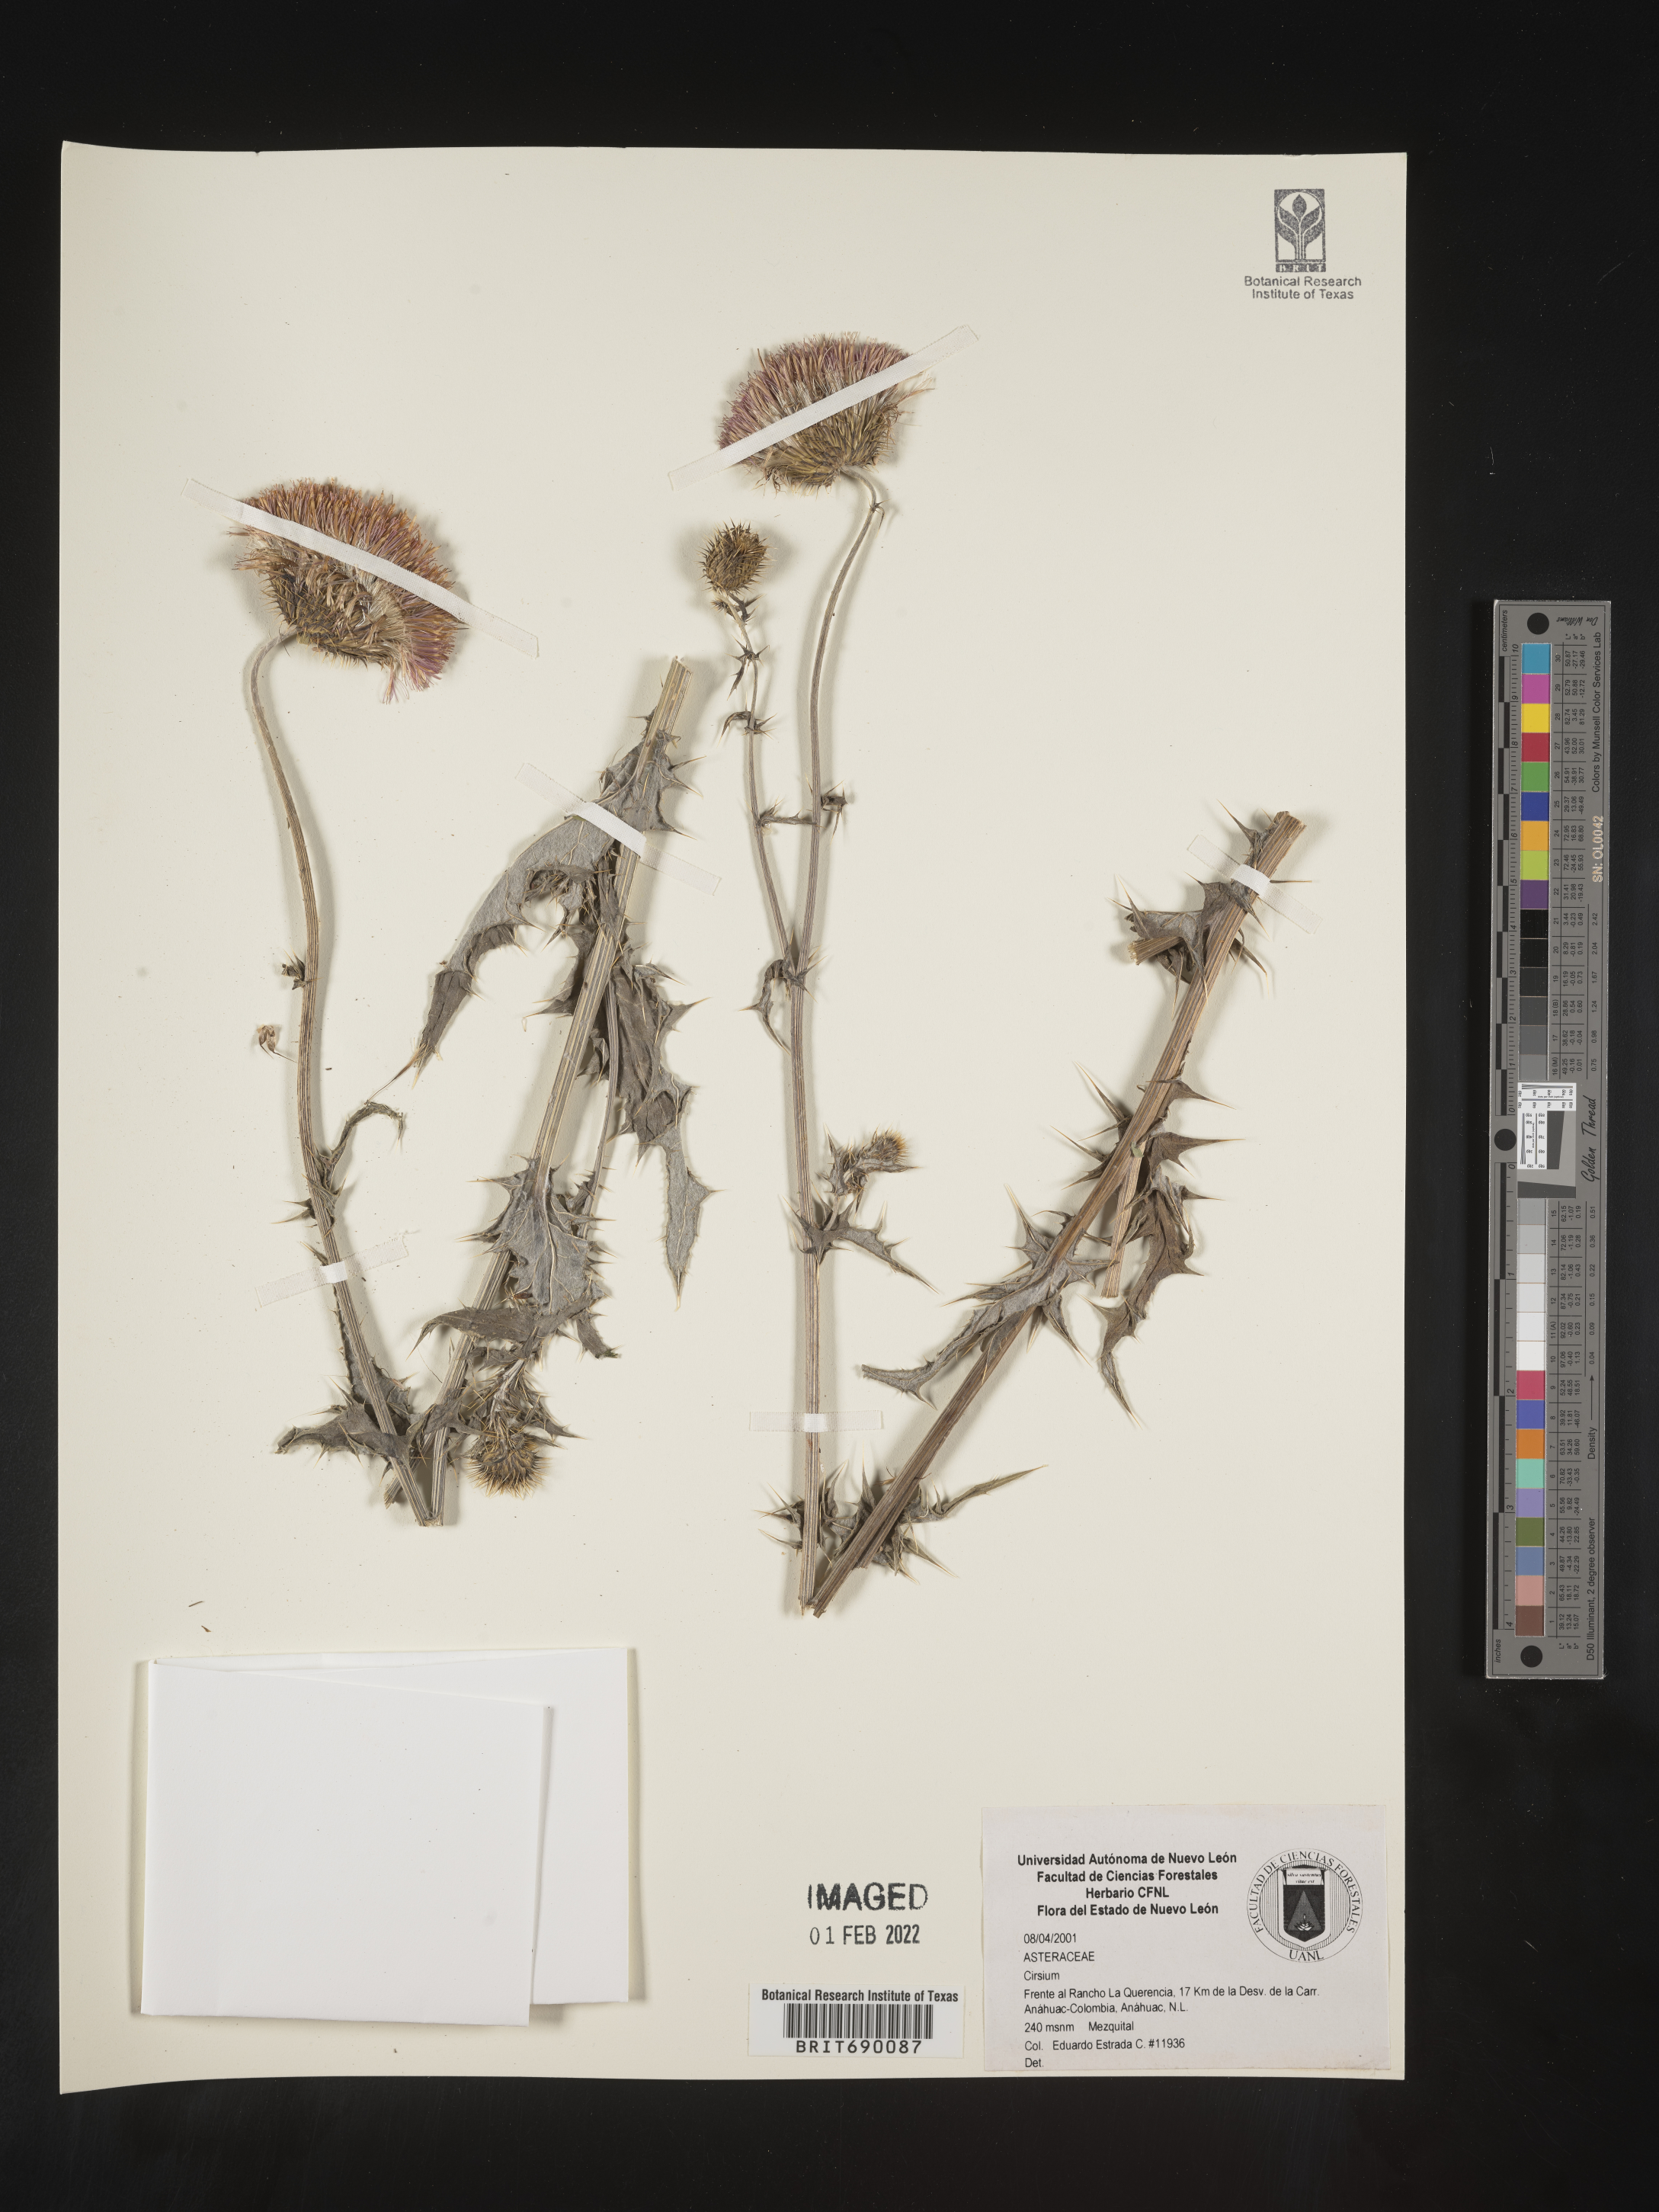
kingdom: Plantae
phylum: Tracheophyta
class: Magnoliopsida
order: Asterales
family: Asteraceae
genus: Cirsium
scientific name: Cirsium
